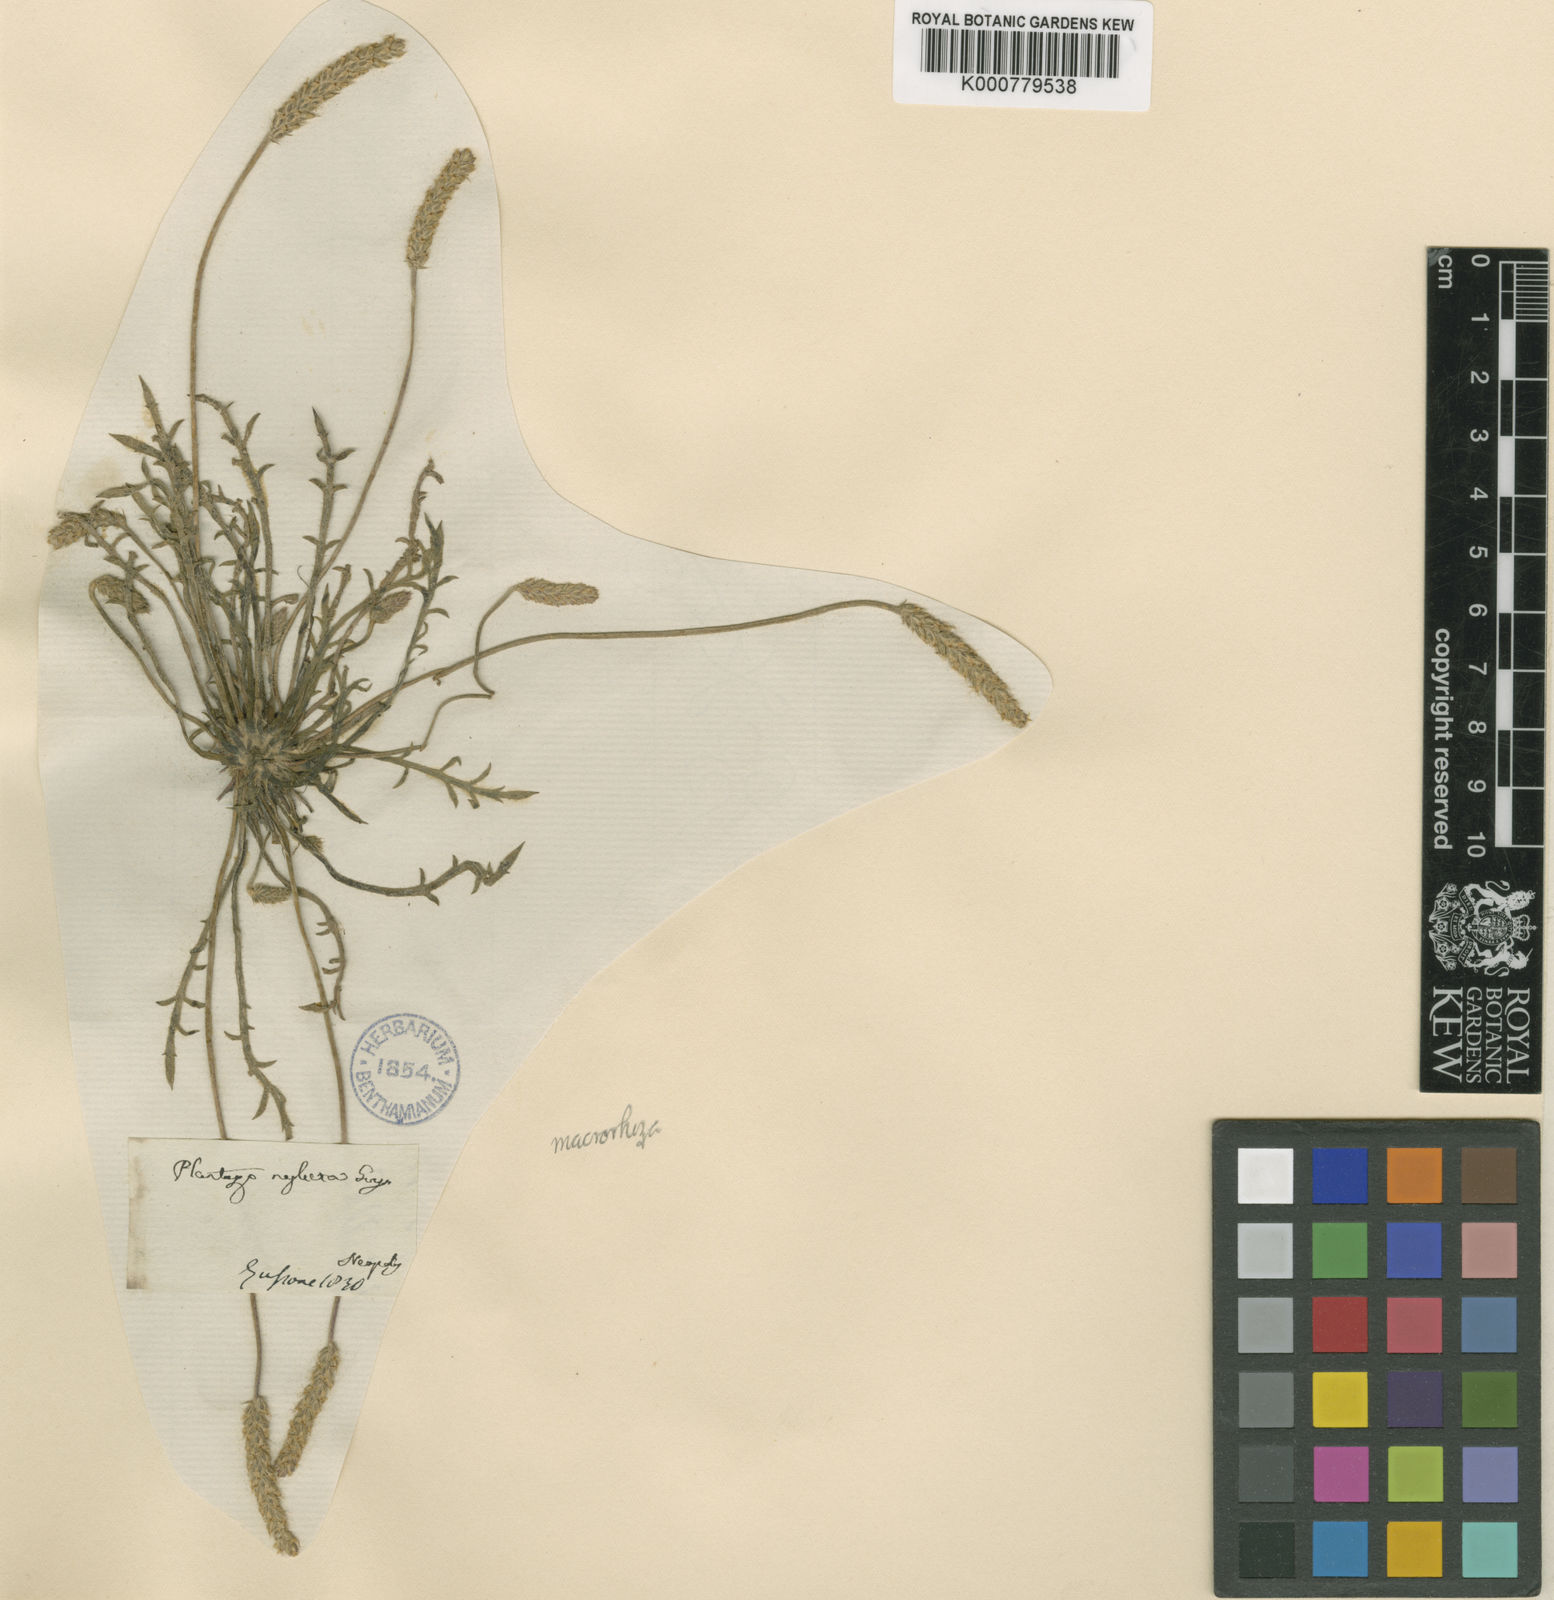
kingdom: Plantae
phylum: Tracheophyta
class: Magnoliopsida
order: Lamiales
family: Plantaginaceae
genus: Plantago
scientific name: Plantago macrorhiza
